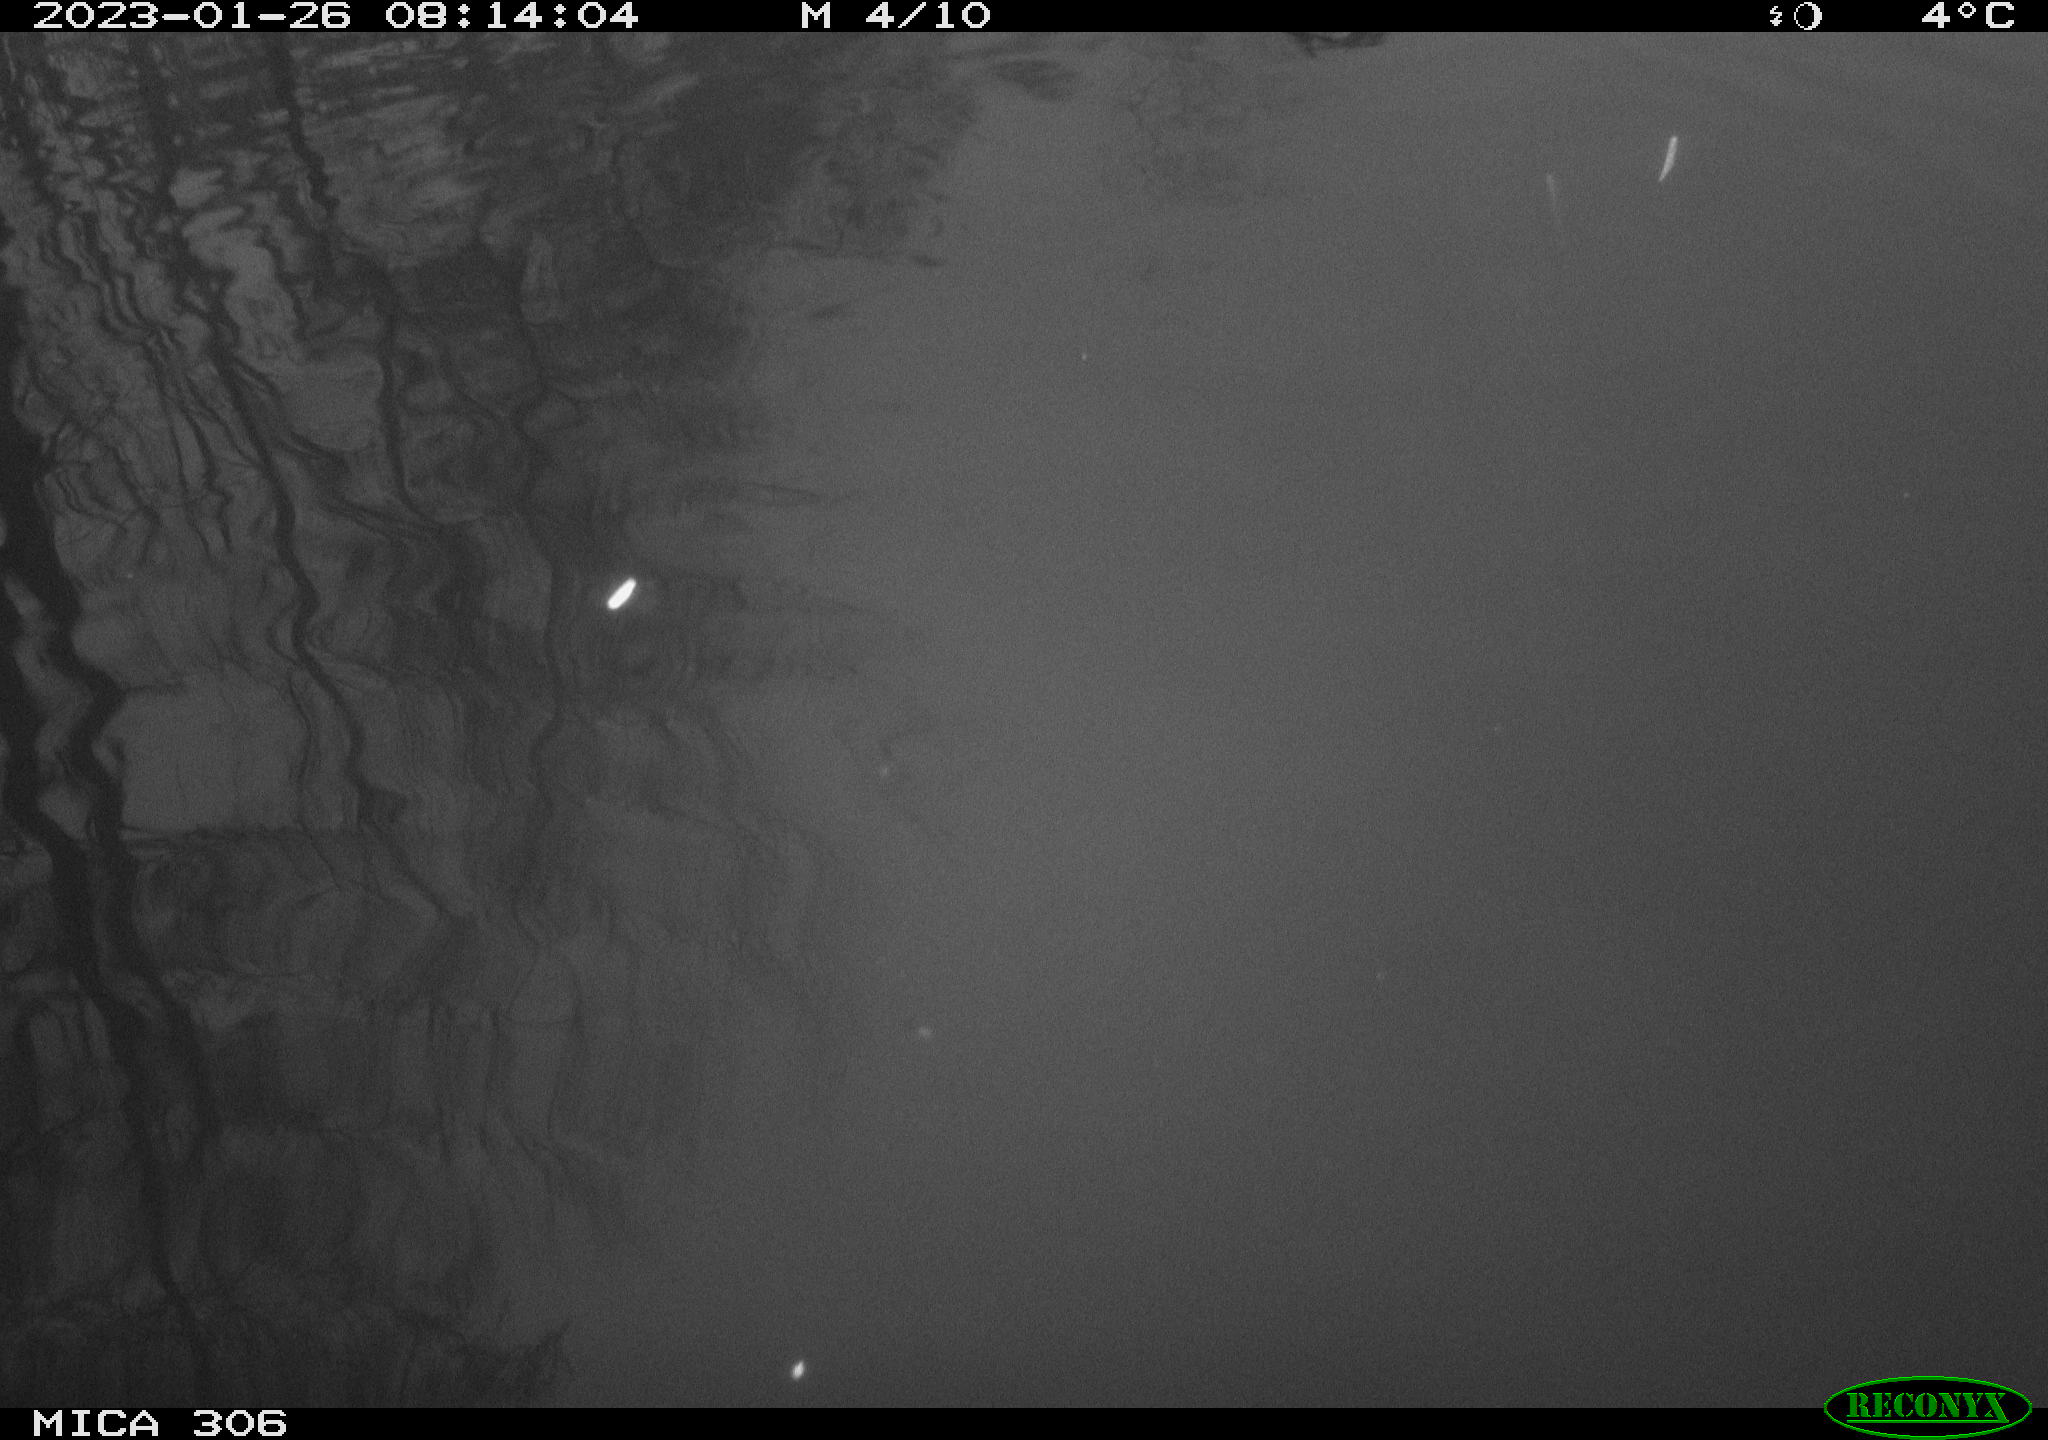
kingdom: Animalia
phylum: Chordata
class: Aves
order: Gruiformes
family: Rallidae
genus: Gallinula
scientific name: Gallinula chloropus
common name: Common moorhen
